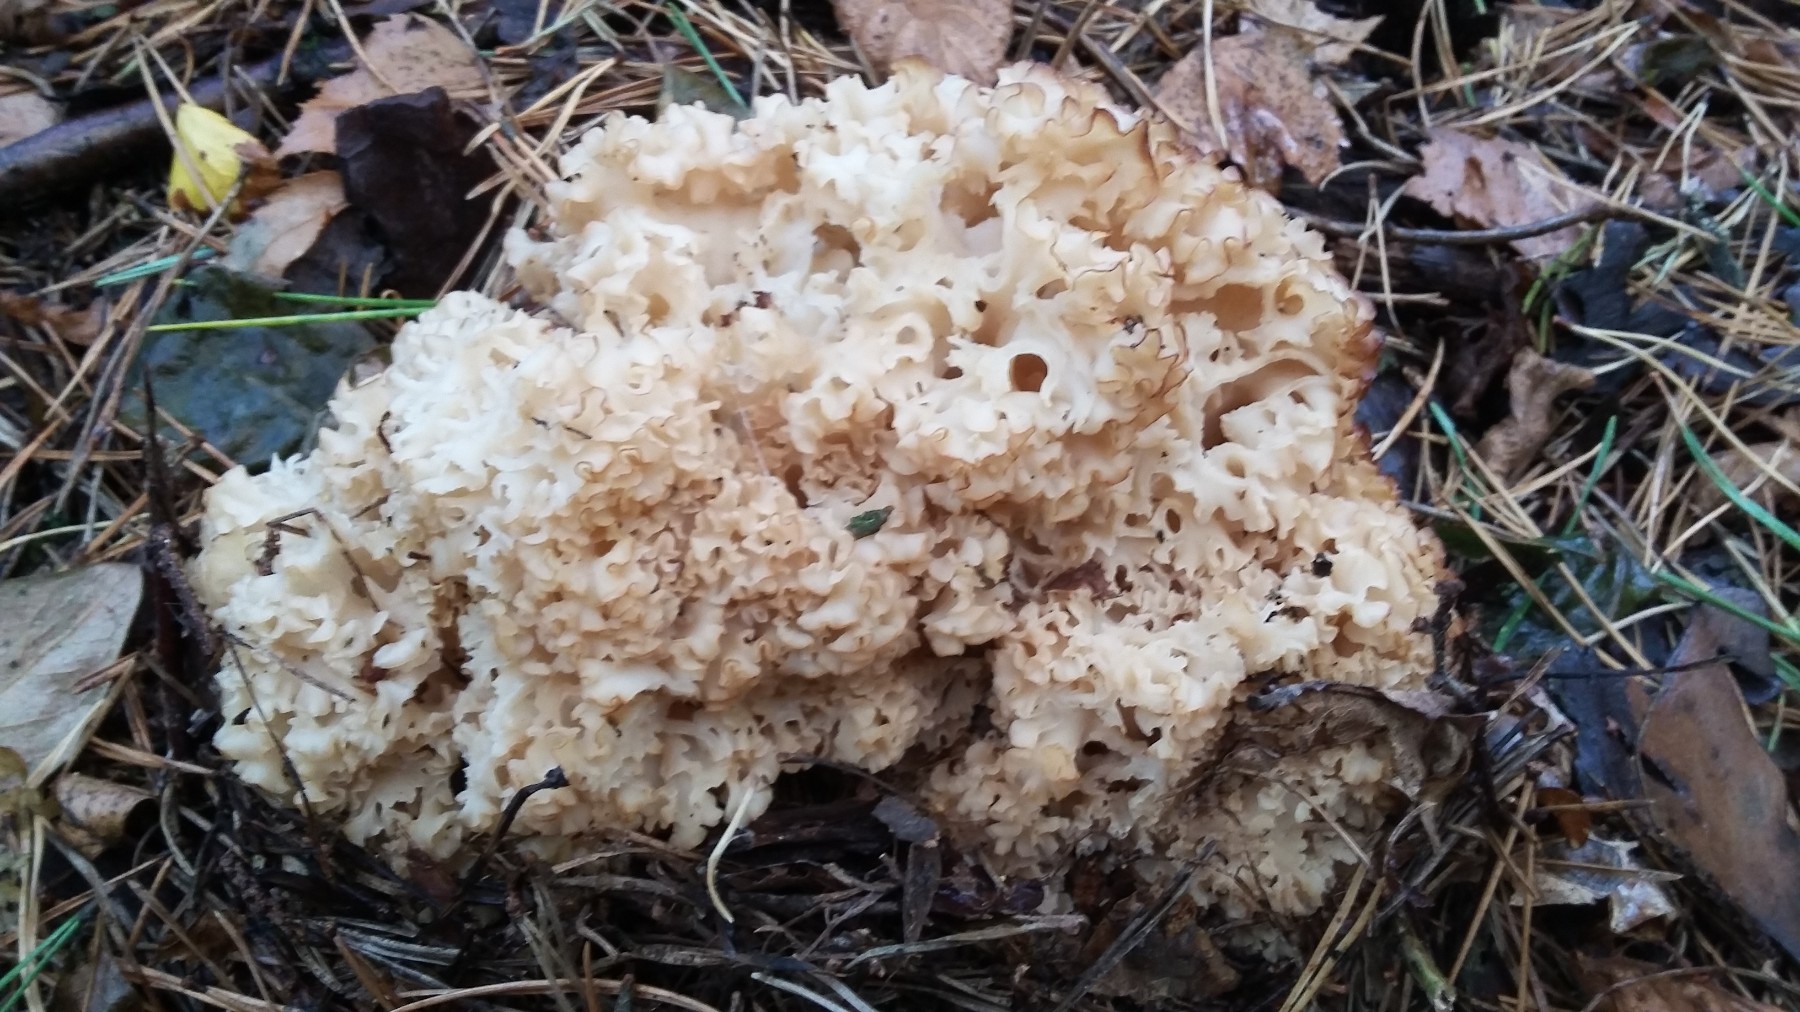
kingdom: Fungi
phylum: Basidiomycota
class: Agaricomycetes
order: Polyporales
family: Sparassidaceae
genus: Sparassis
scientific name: Sparassis crispa
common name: kruset blomkålssvamp
